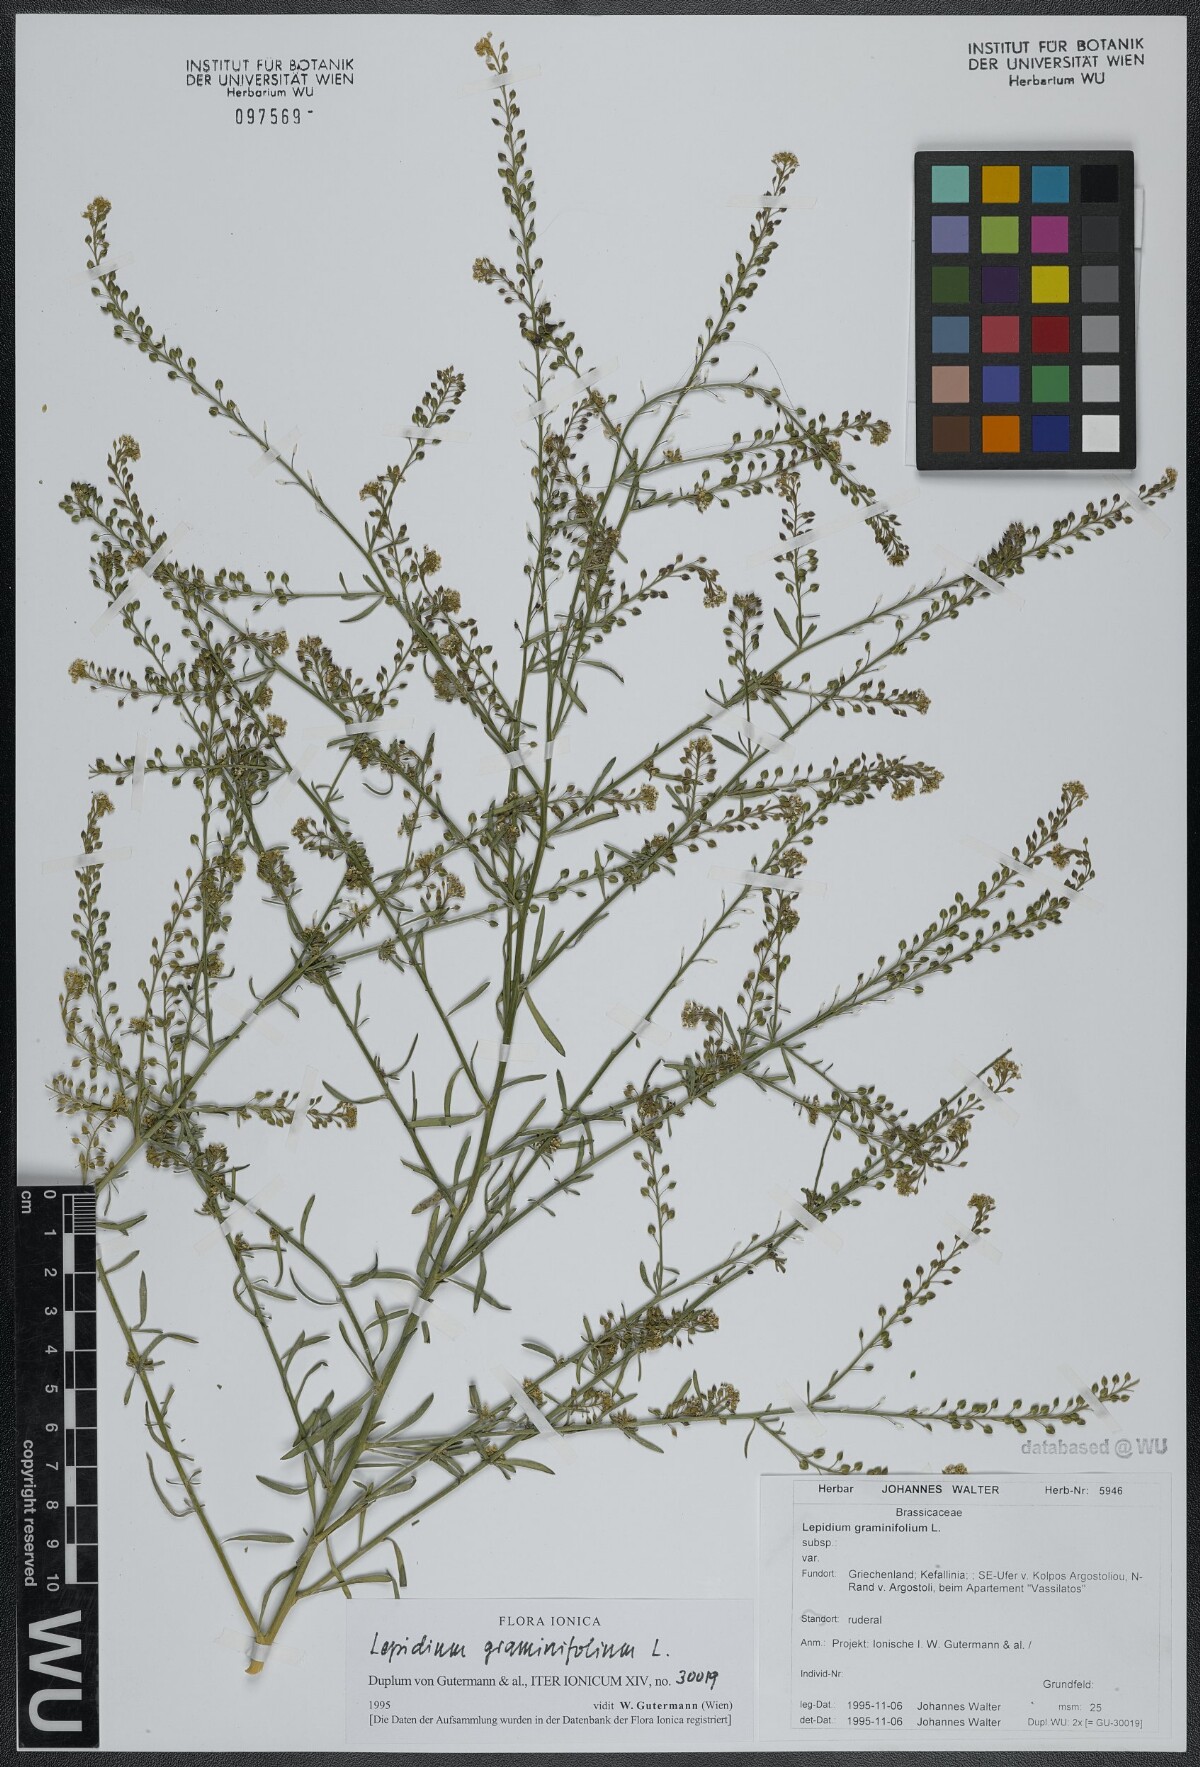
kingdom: Plantae
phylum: Tracheophyta
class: Magnoliopsida
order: Brassicales
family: Brassicaceae
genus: Lepidium
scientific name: Lepidium graminifolium
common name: Tall pepperwort
